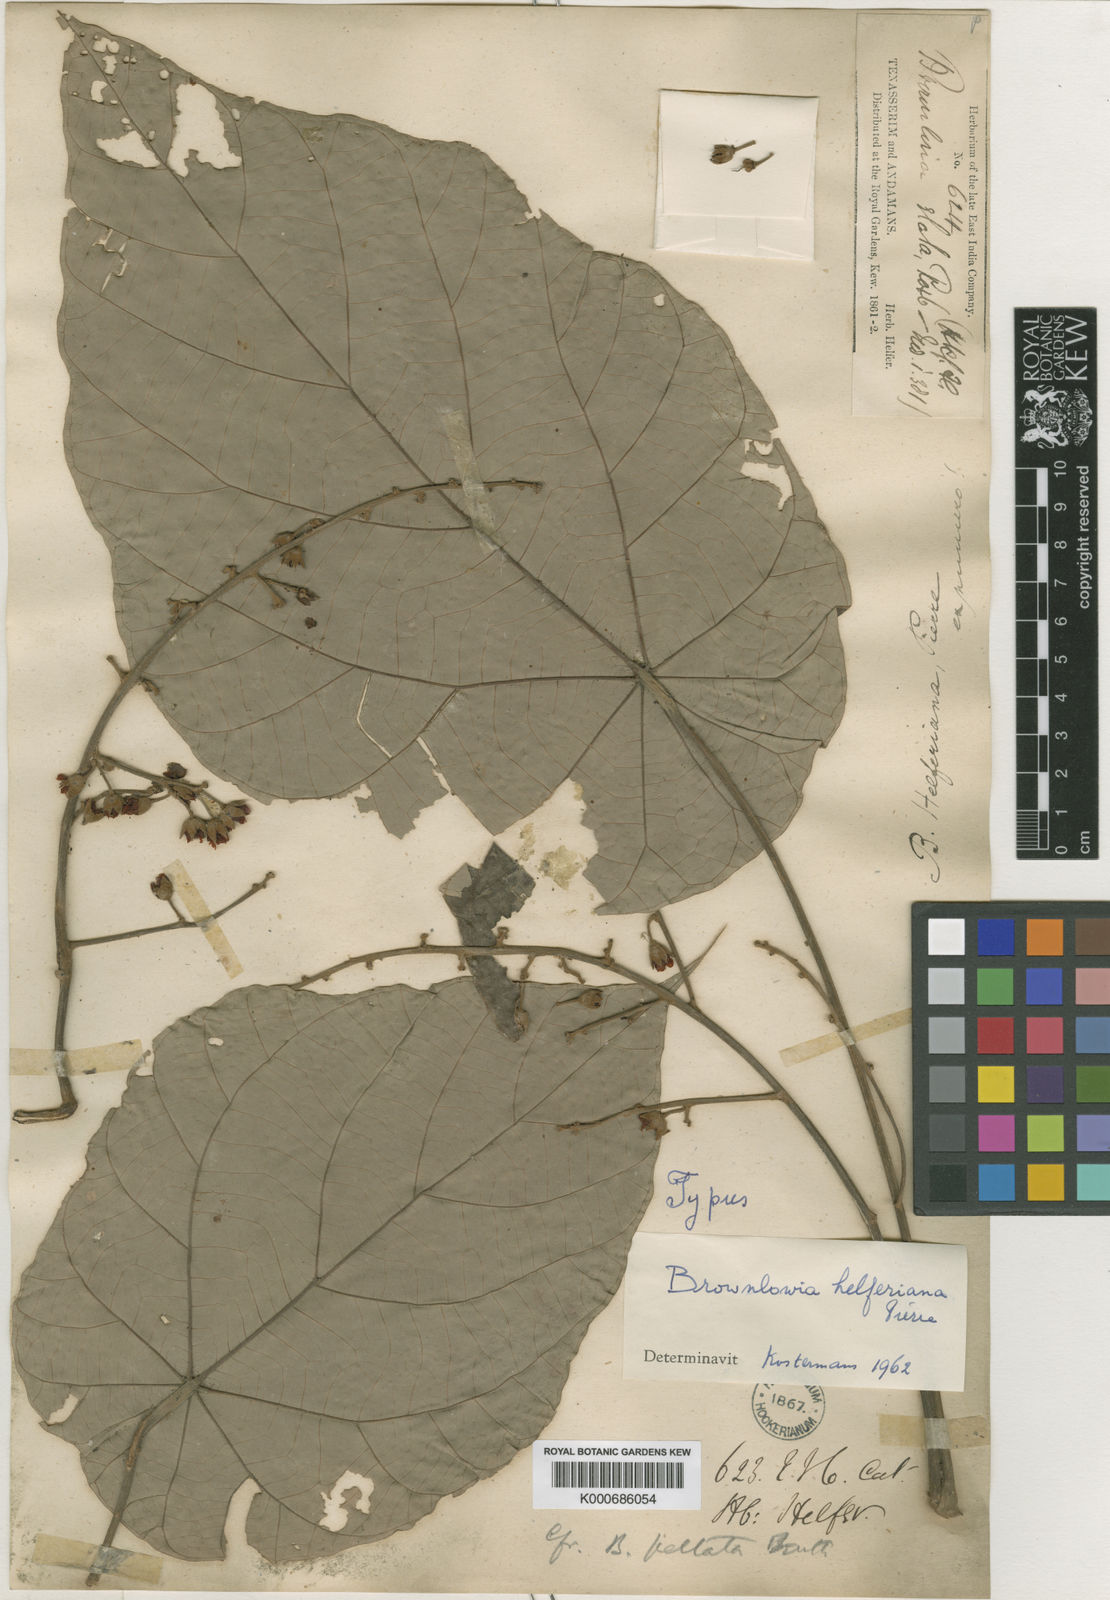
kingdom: Plantae
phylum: Tracheophyta
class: Magnoliopsida
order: Malvales
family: Malvaceae
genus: Brownlowia
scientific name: Brownlowia helferiana
